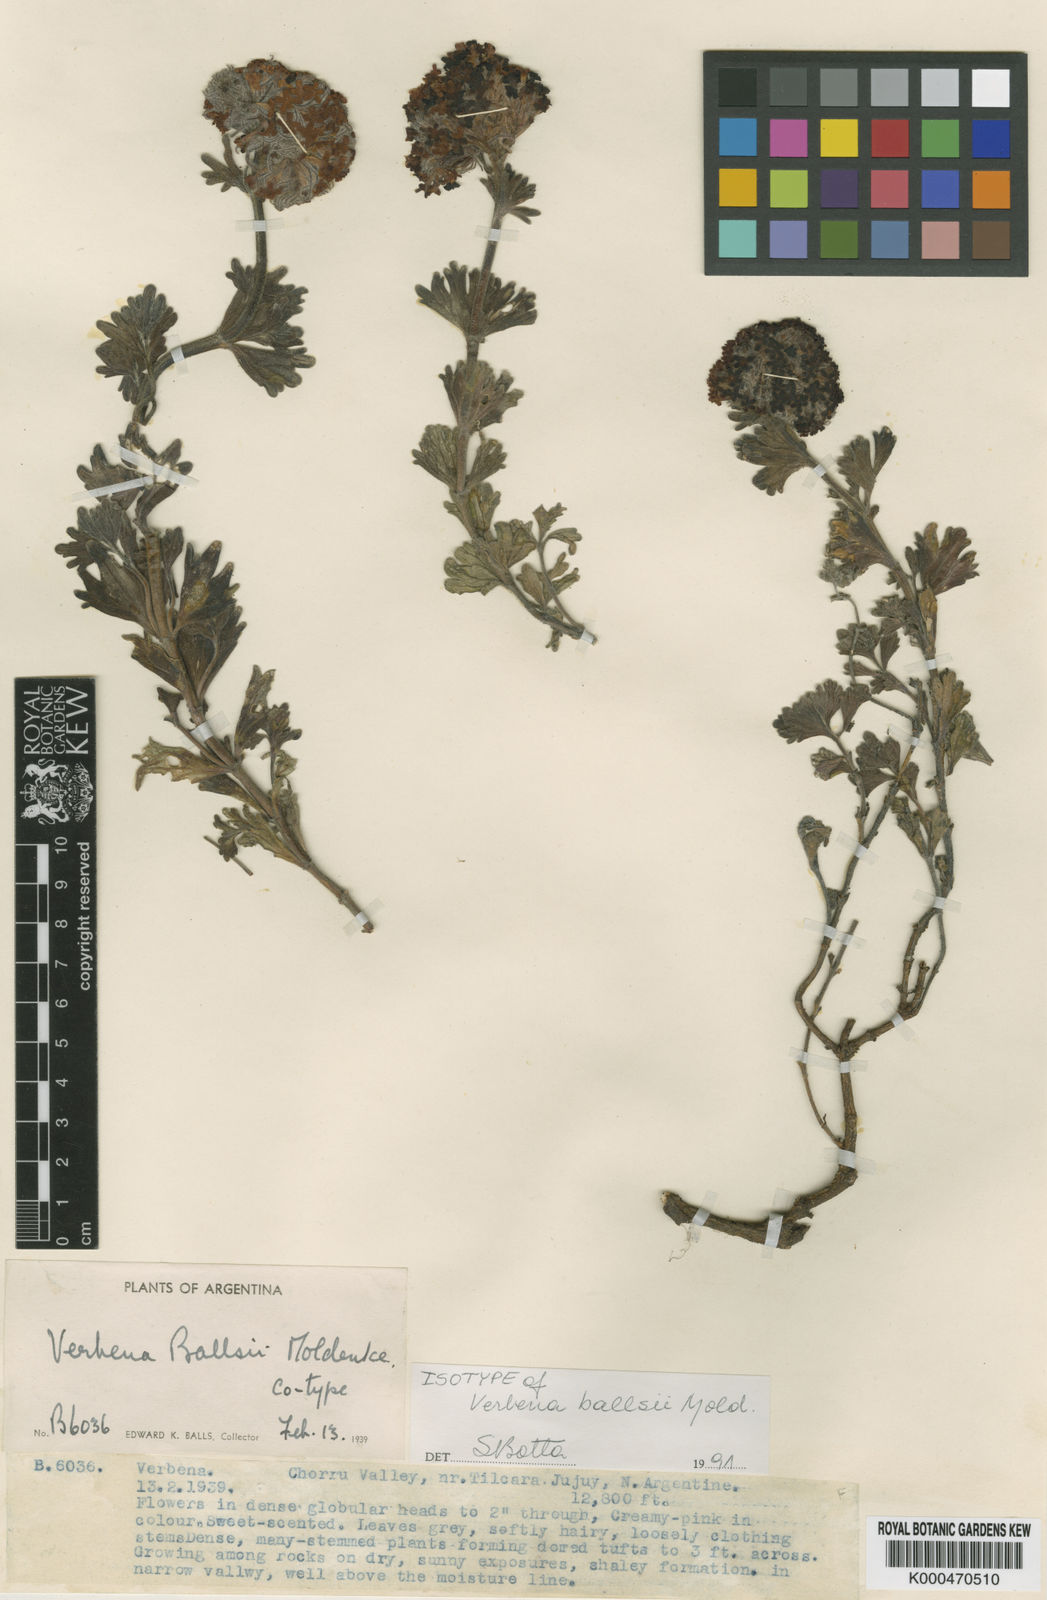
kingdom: Plantae
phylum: Tracheophyta
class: Magnoliopsida
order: Lamiales
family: Verbenaceae
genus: Junellia
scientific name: Junellia ballsii
